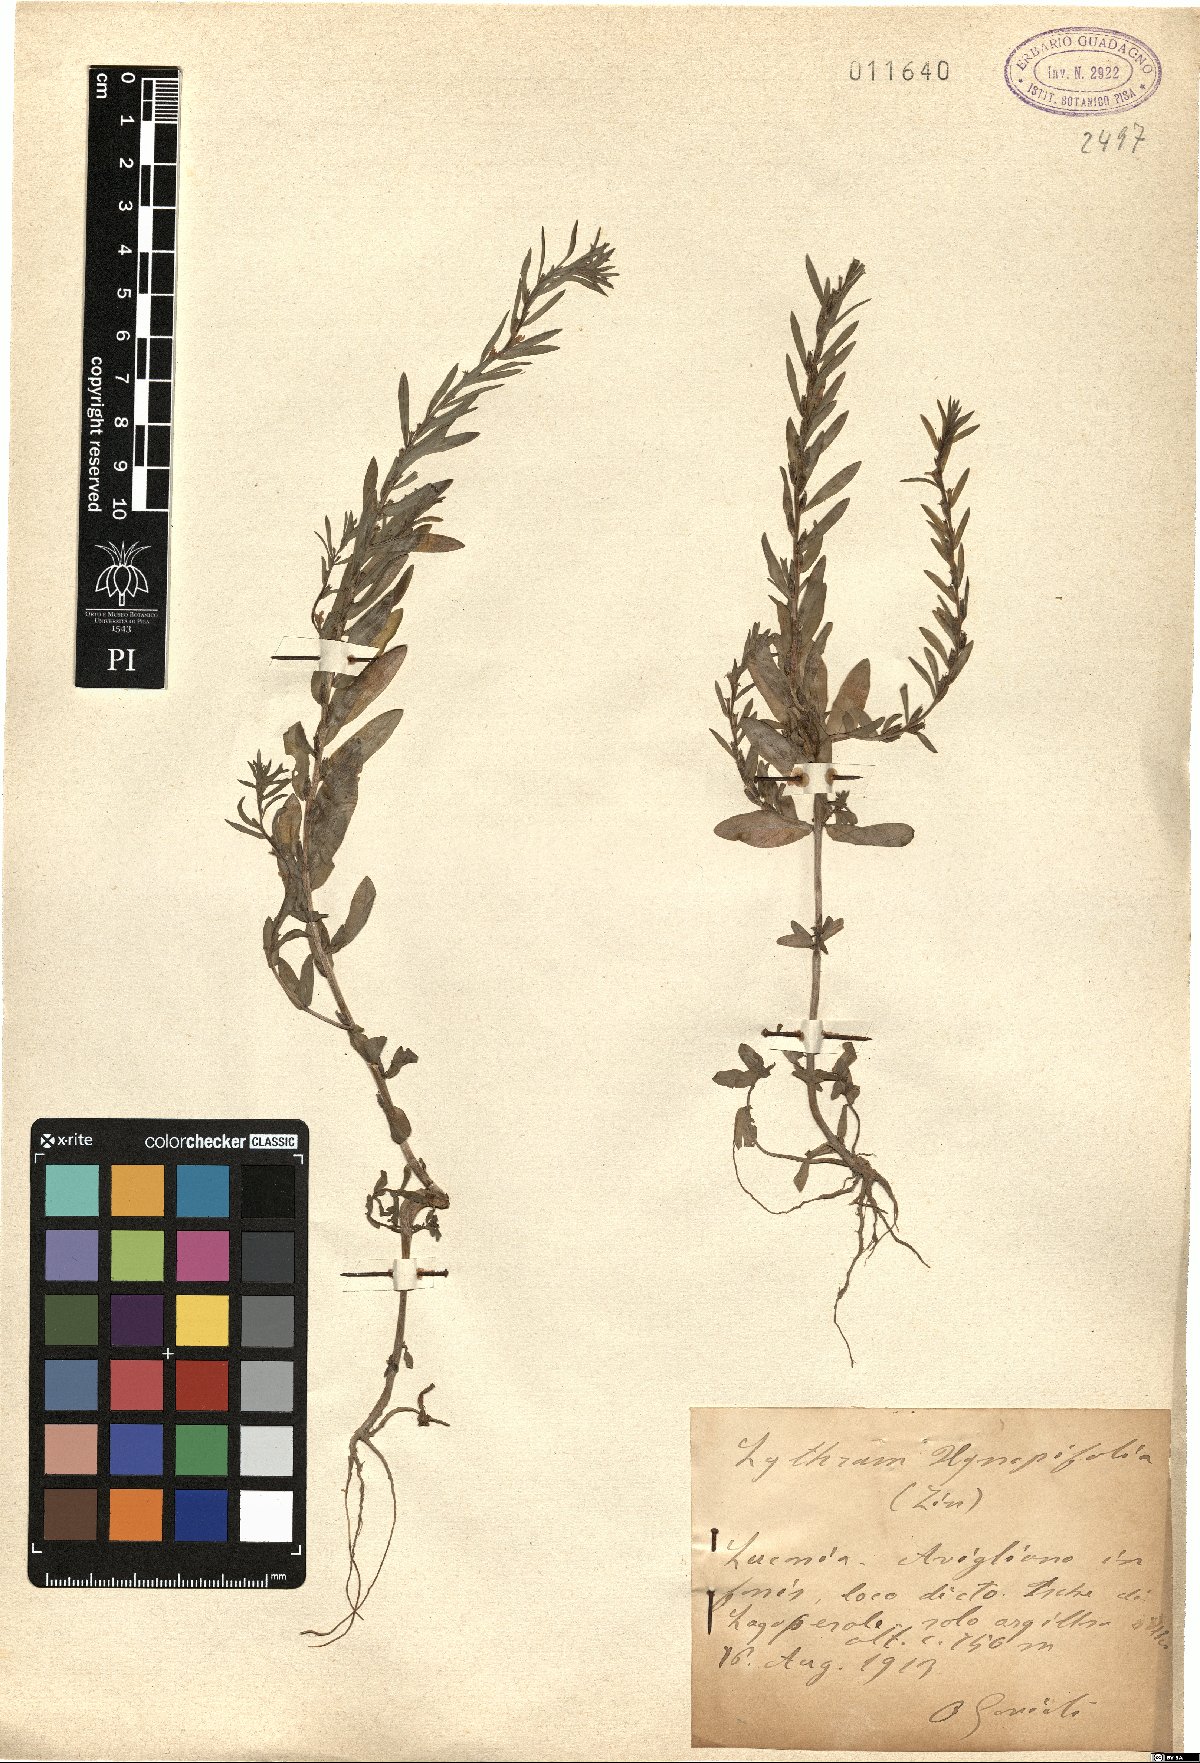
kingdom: Plantae
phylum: Tracheophyta
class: Magnoliopsida
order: Myrtales
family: Lythraceae
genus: Lythrum
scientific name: Lythrum hyssopifolia
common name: Grass-poly
